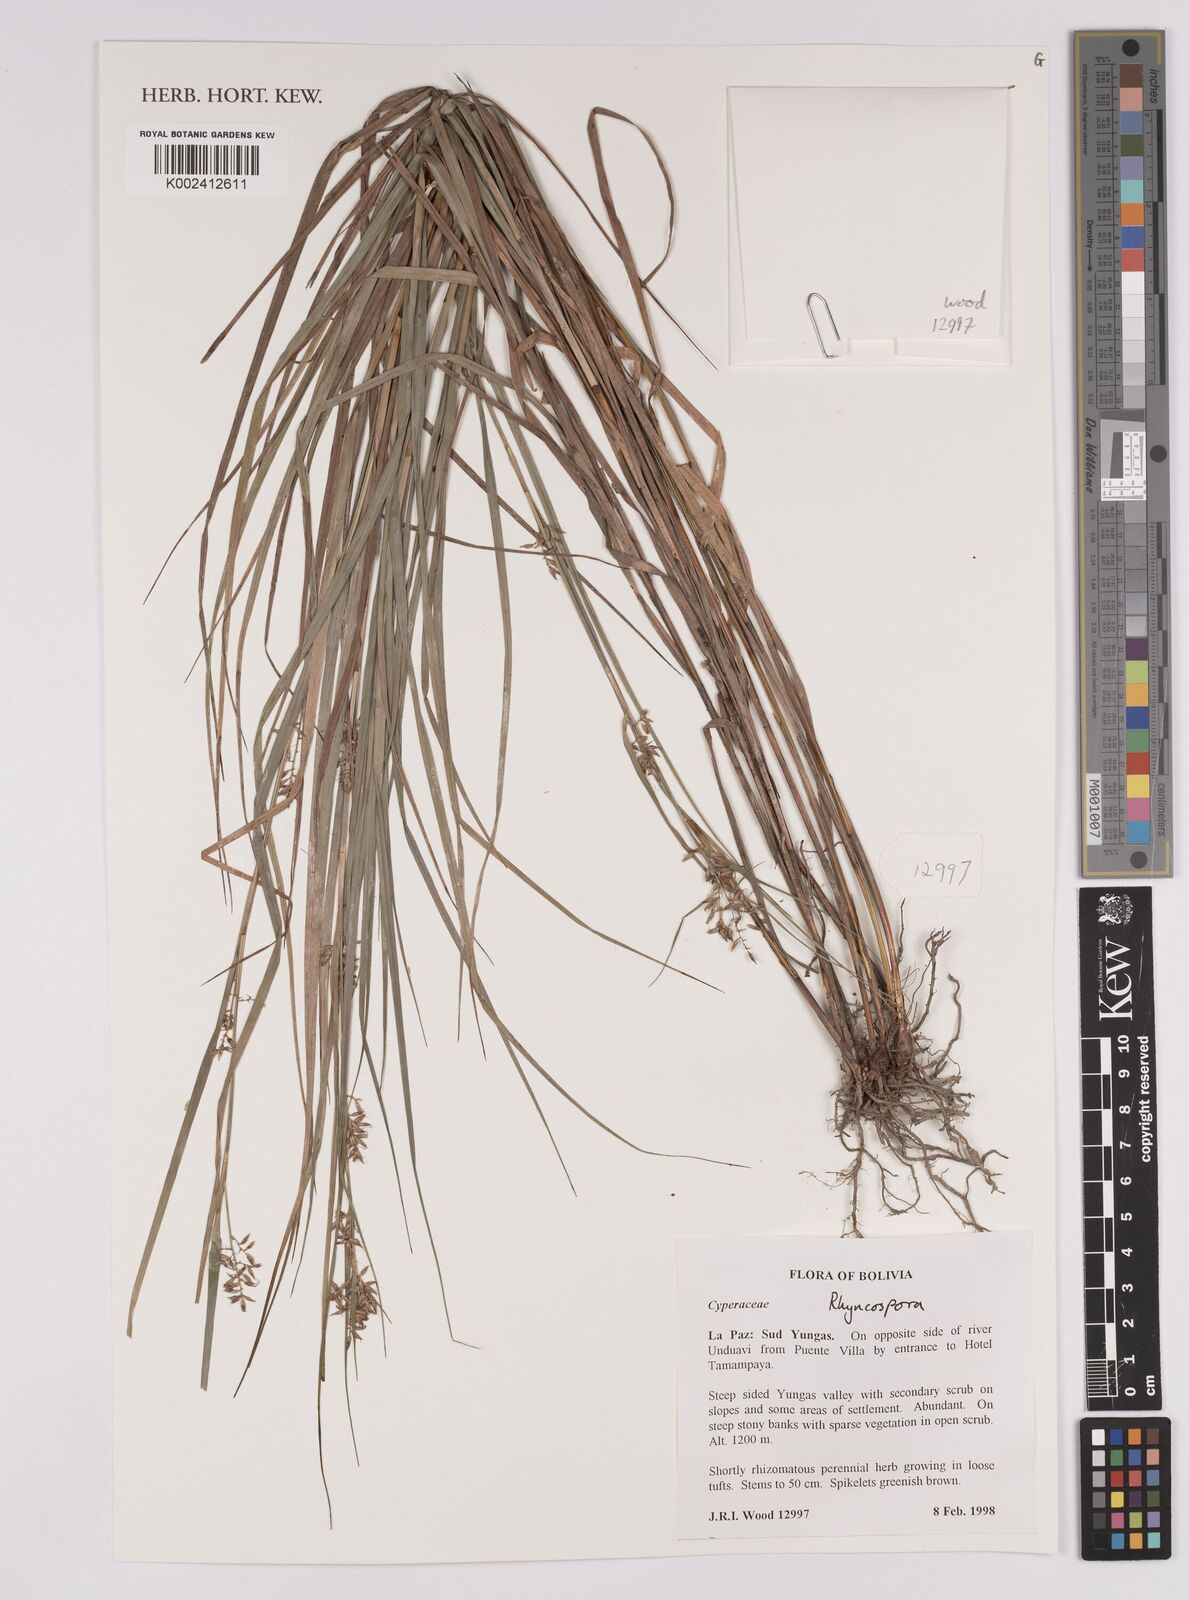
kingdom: Plantae
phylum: Tracheophyta
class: Liliopsida
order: Poales
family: Cyperaceae
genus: Rhynchospora
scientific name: Rhynchospora
